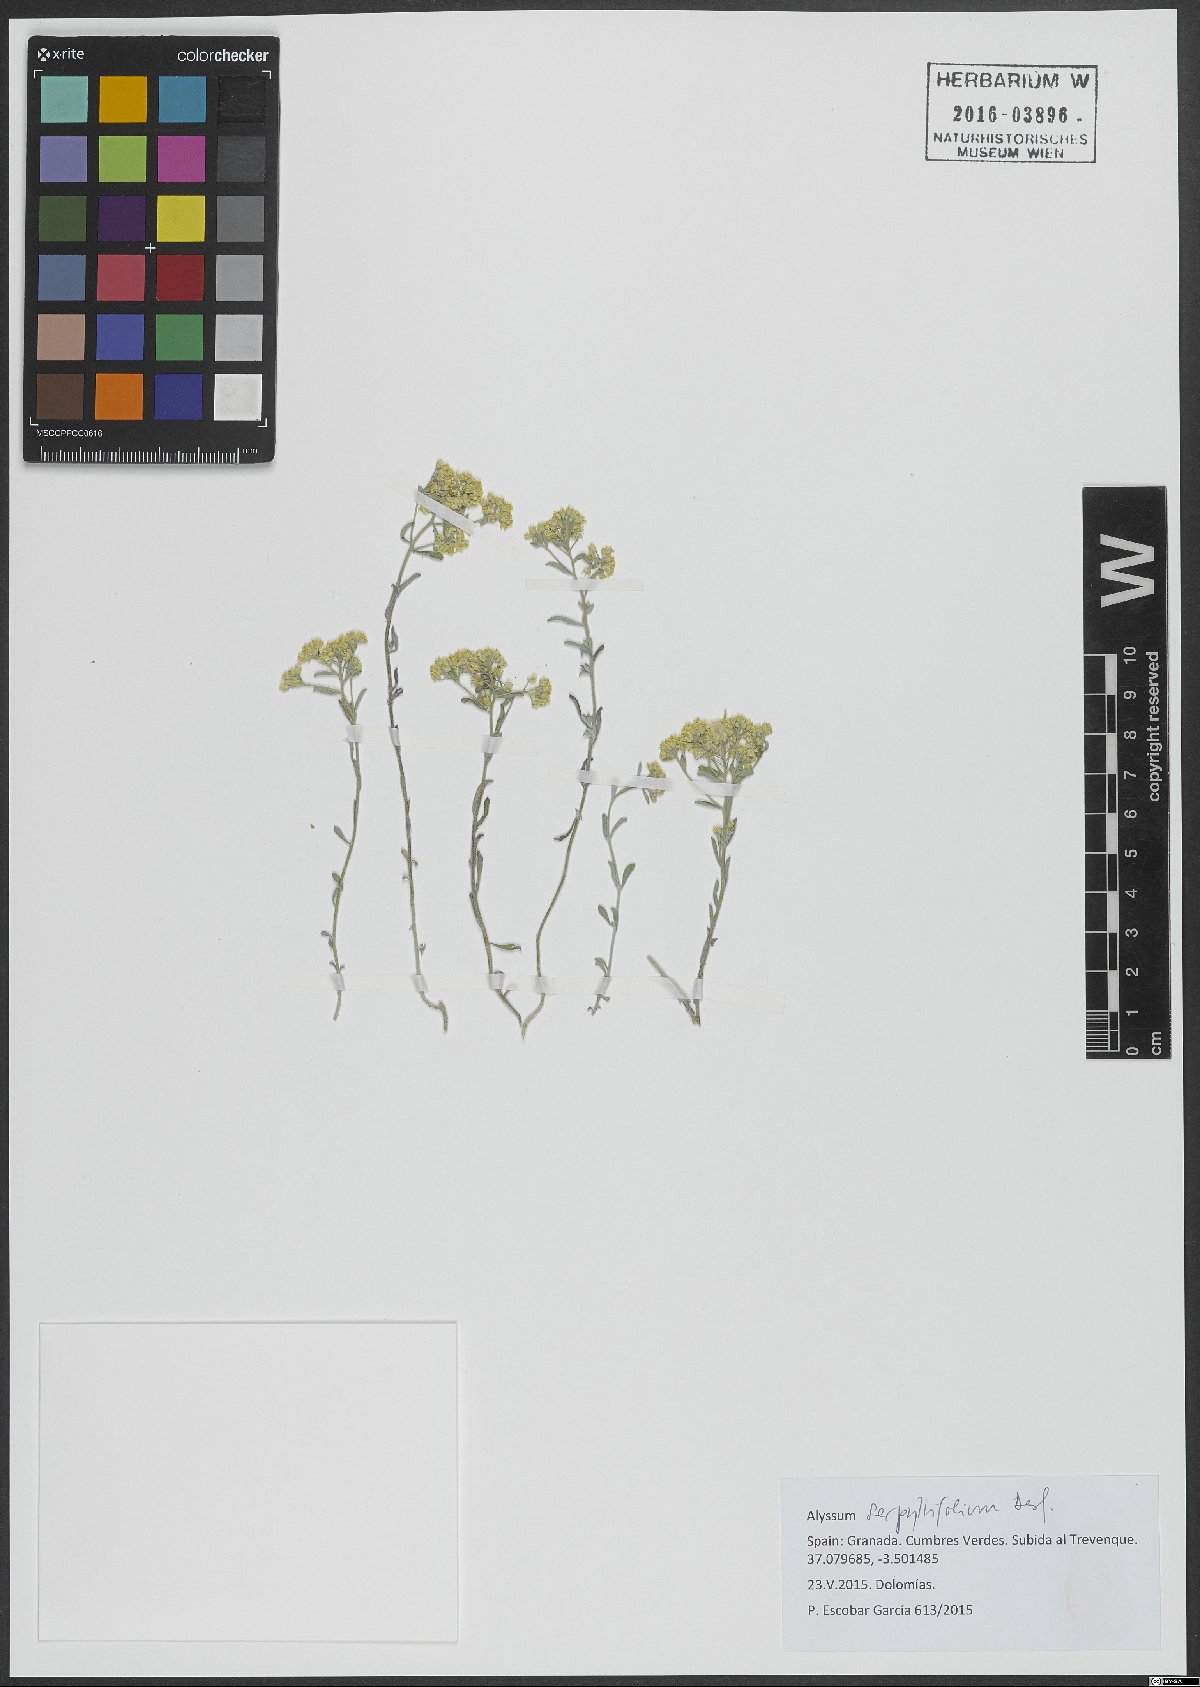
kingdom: Plantae
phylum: Tracheophyta
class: Magnoliopsida
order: Brassicales
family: Brassicaceae
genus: Odontarrhena
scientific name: Odontarrhena serpyllifolia
